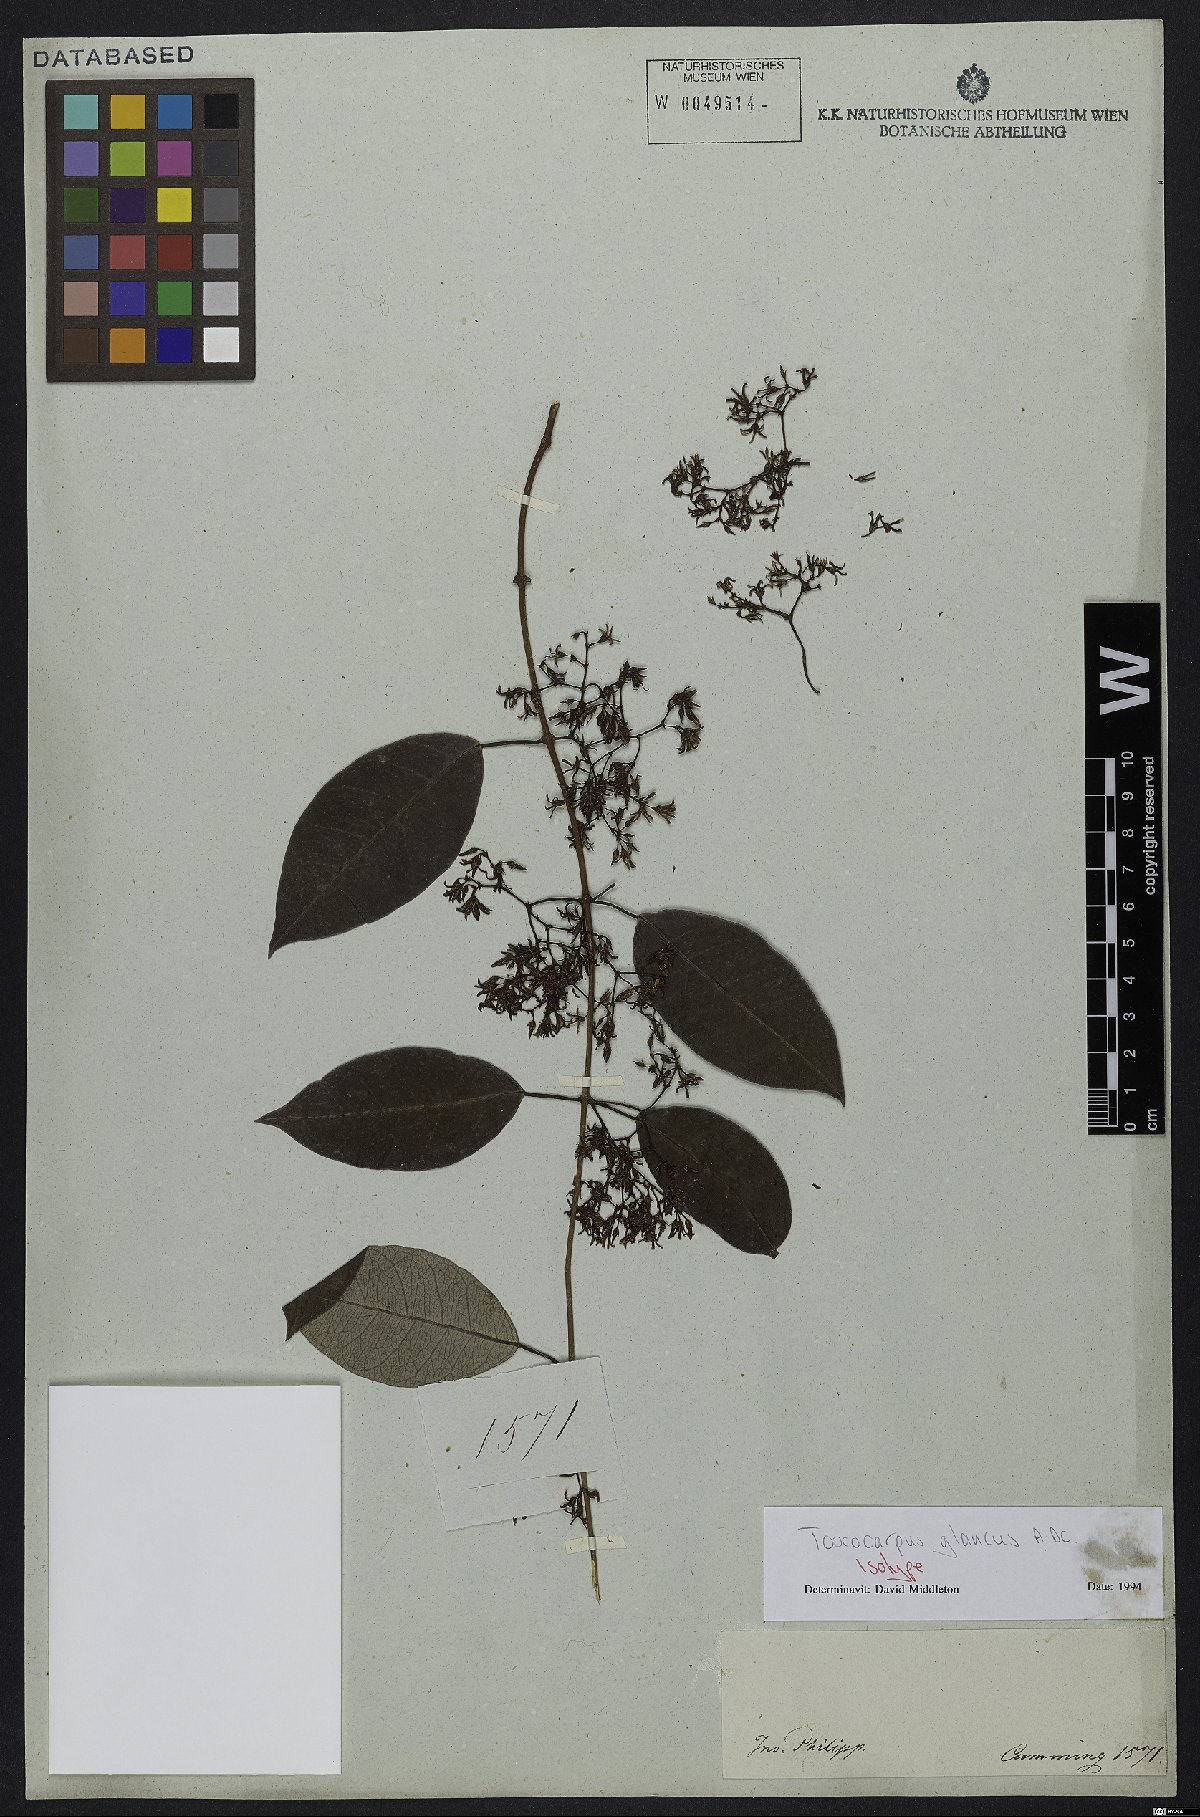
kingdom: Plantae
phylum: Tracheophyta
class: Magnoliopsida
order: Gentianales
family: Apocynaceae
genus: Toxocarpus
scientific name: Toxocarpus glaucus
